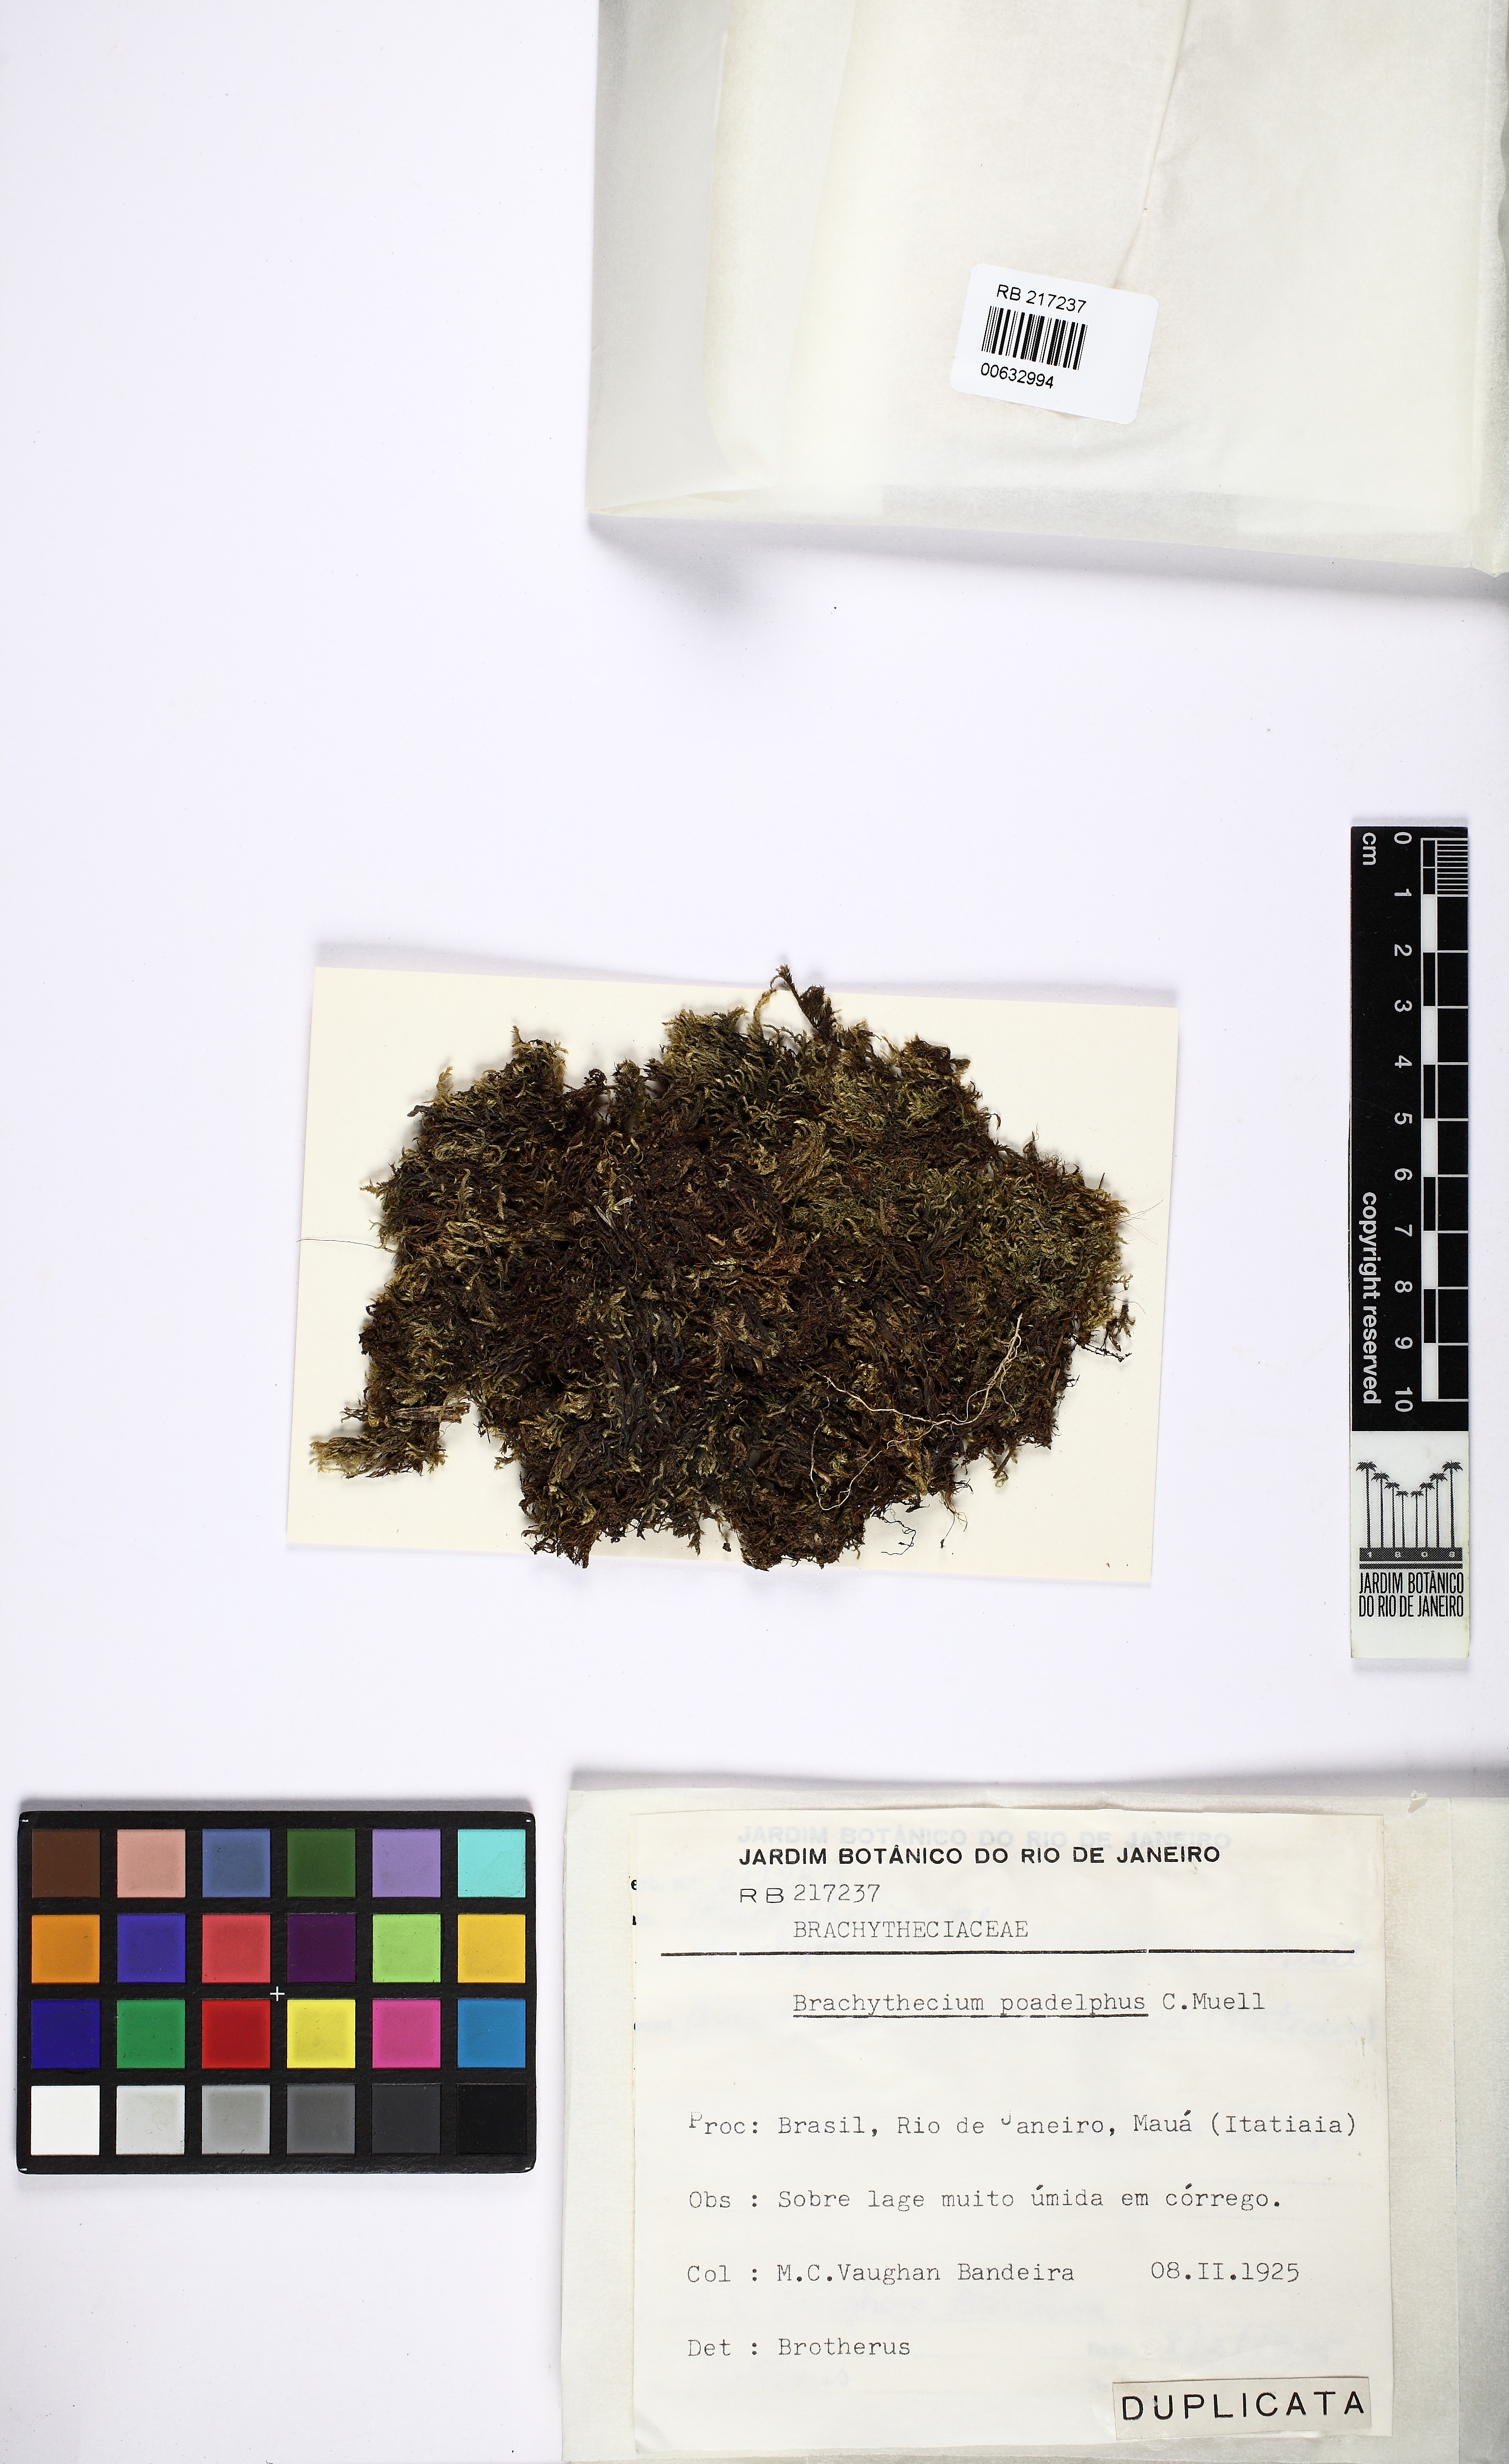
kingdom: Plantae
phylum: Bryophyta
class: Bryopsida
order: Hypnales
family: Brachytheciaceae
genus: Brachythecium
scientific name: Brachythecium poadelphus
